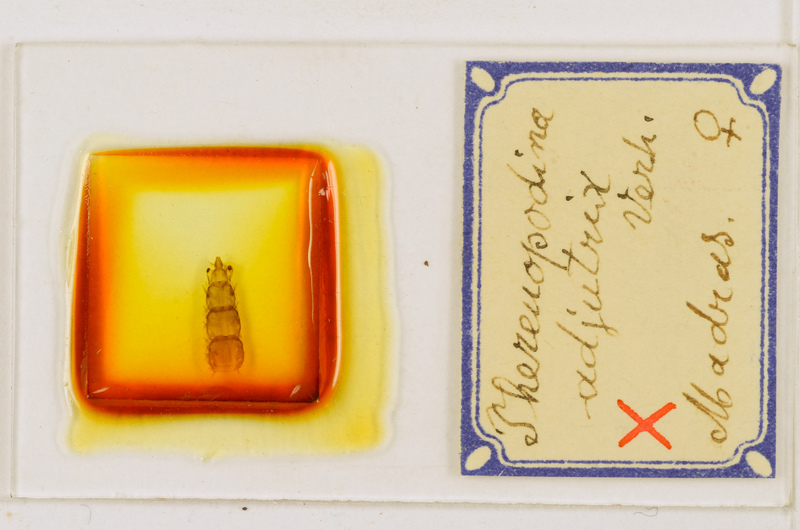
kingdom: Animalia
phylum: Arthropoda
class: Chilopoda
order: Scutigeromorpha
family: Scutigeridae
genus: Thereuopodina
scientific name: Thereuopodina adjutrix
